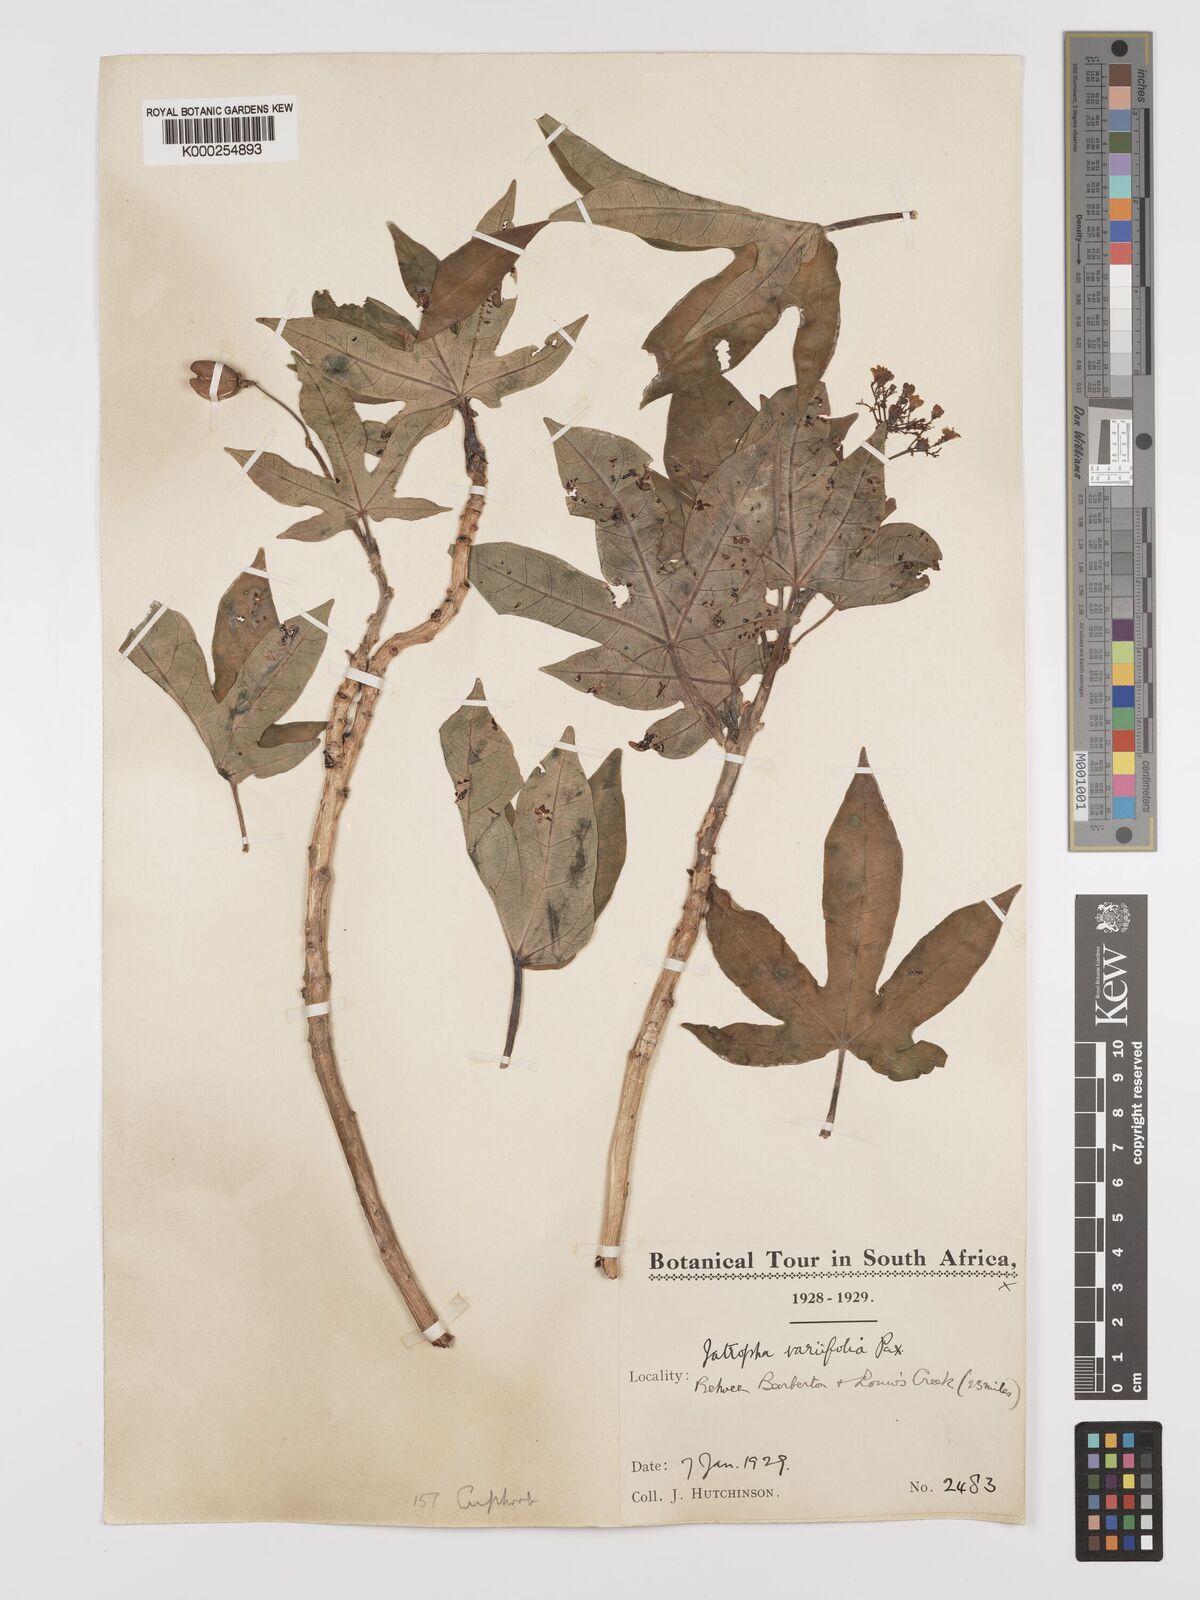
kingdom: Plantae
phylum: Tracheophyta
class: Magnoliopsida
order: Malpighiales
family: Euphorbiaceae
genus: Jatropha
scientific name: Jatropha variifolia
